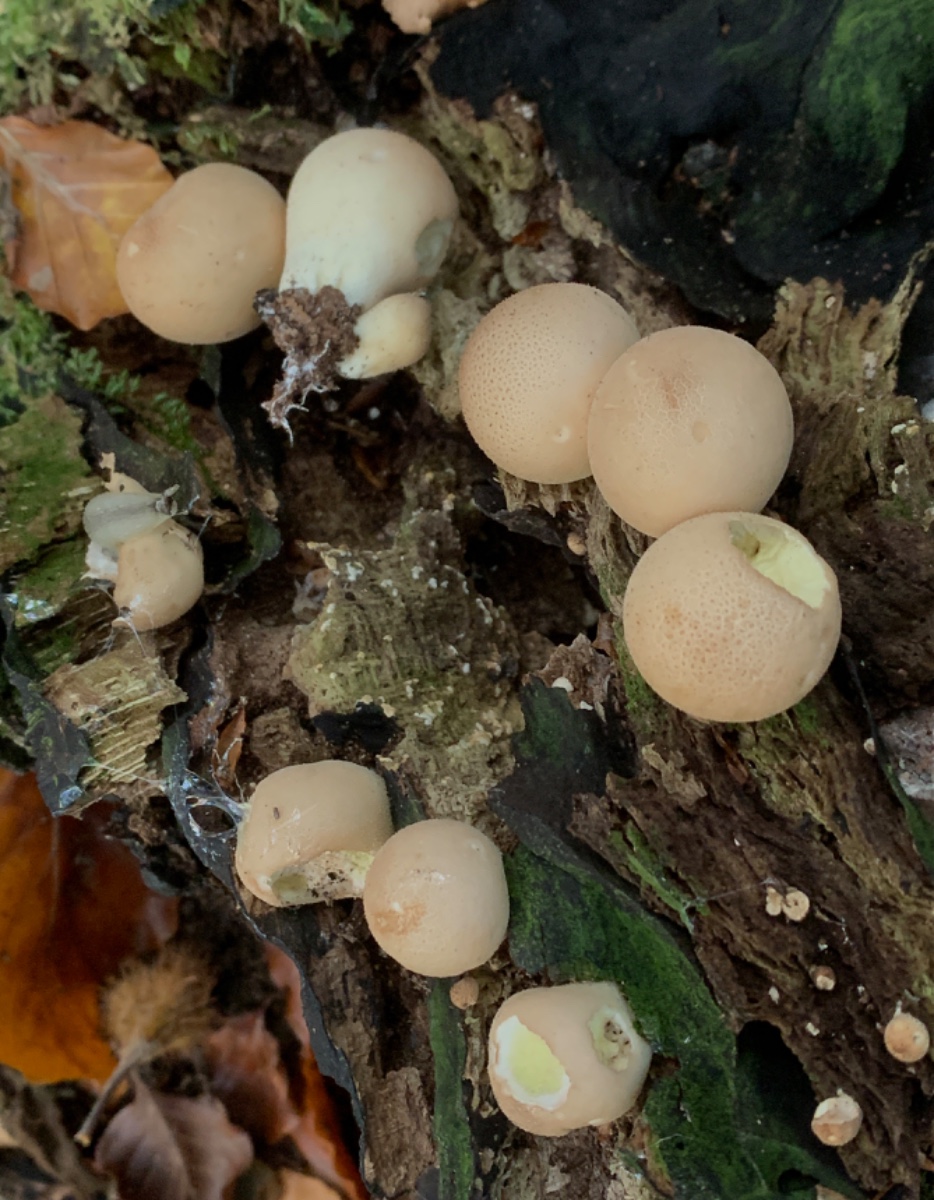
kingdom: Fungi
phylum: Basidiomycota
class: Agaricomycetes
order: Agaricales
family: Lycoperdaceae
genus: Apioperdon
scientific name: Apioperdon pyriforme
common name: pære-støvbold
